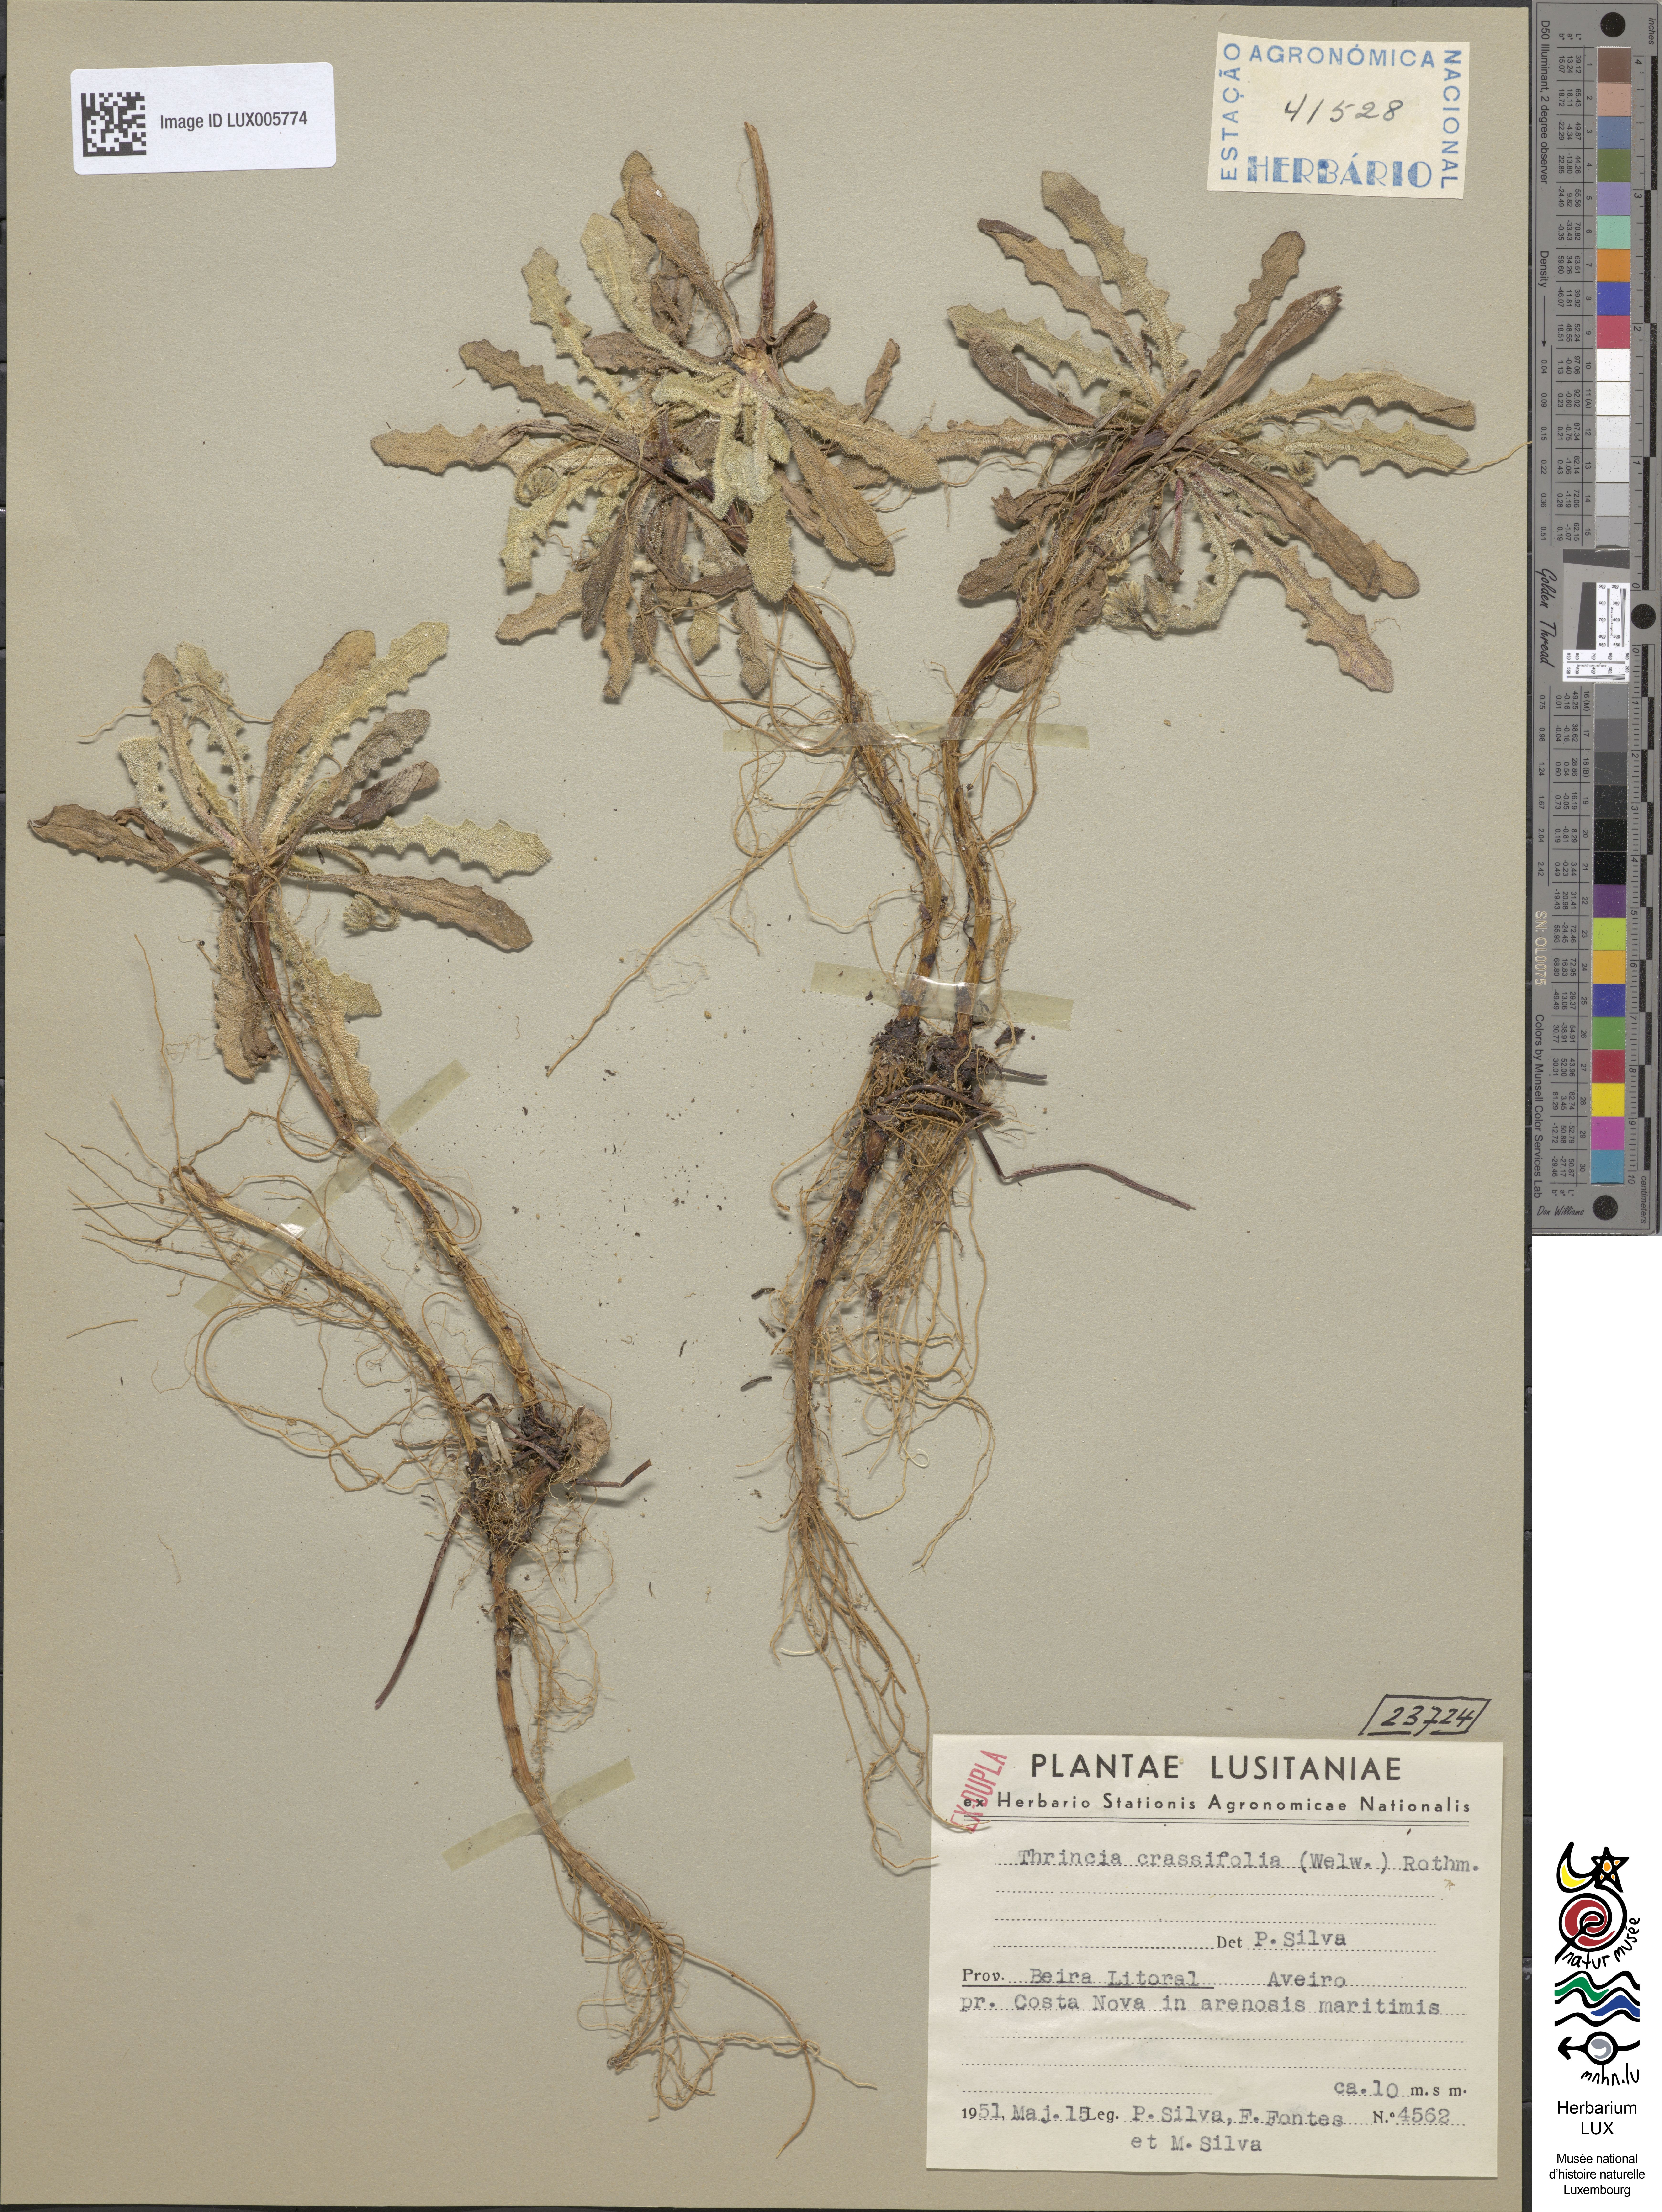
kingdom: Plantae
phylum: Tracheophyta
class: Magnoliopsida
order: Asterales
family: Asteraceae
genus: Thrincia
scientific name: Thrincia
